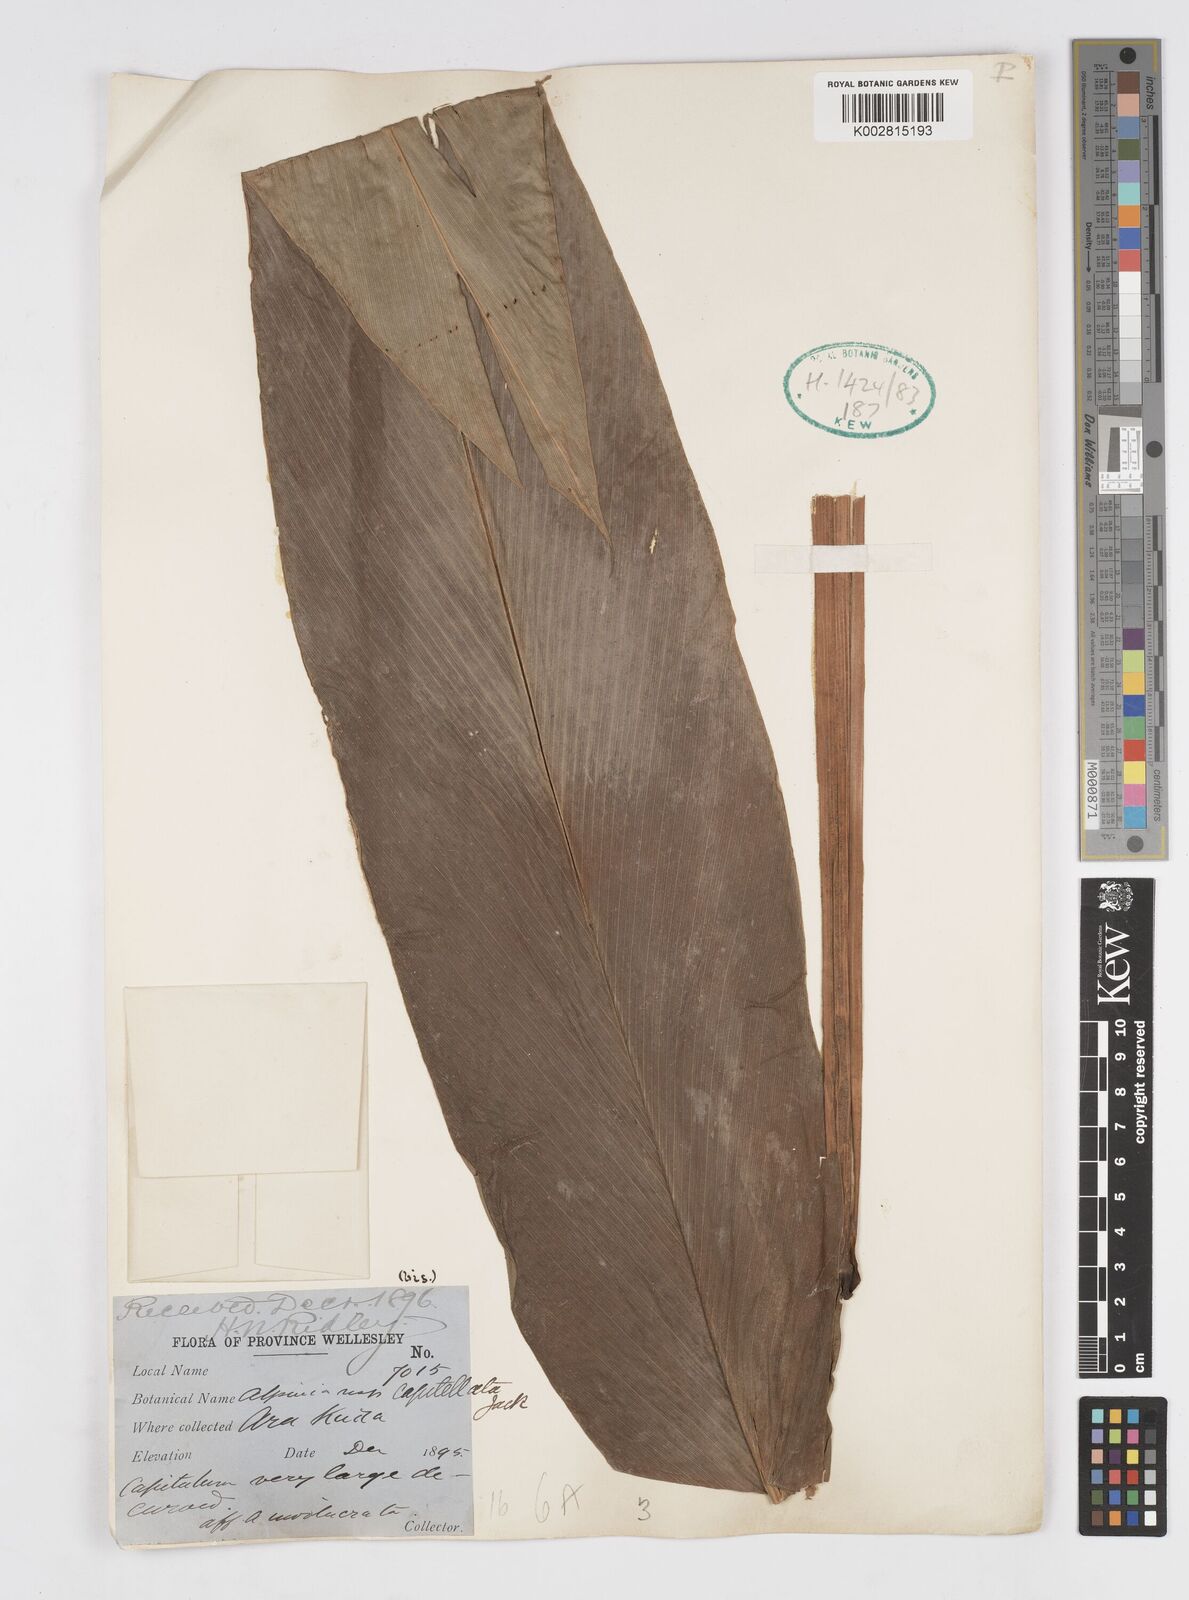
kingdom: Plantae
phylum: Tracheophyta
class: Liliopsida
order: Zingiberales
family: Zingiberaceae
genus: Alpinia
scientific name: Alpinia capitellata
